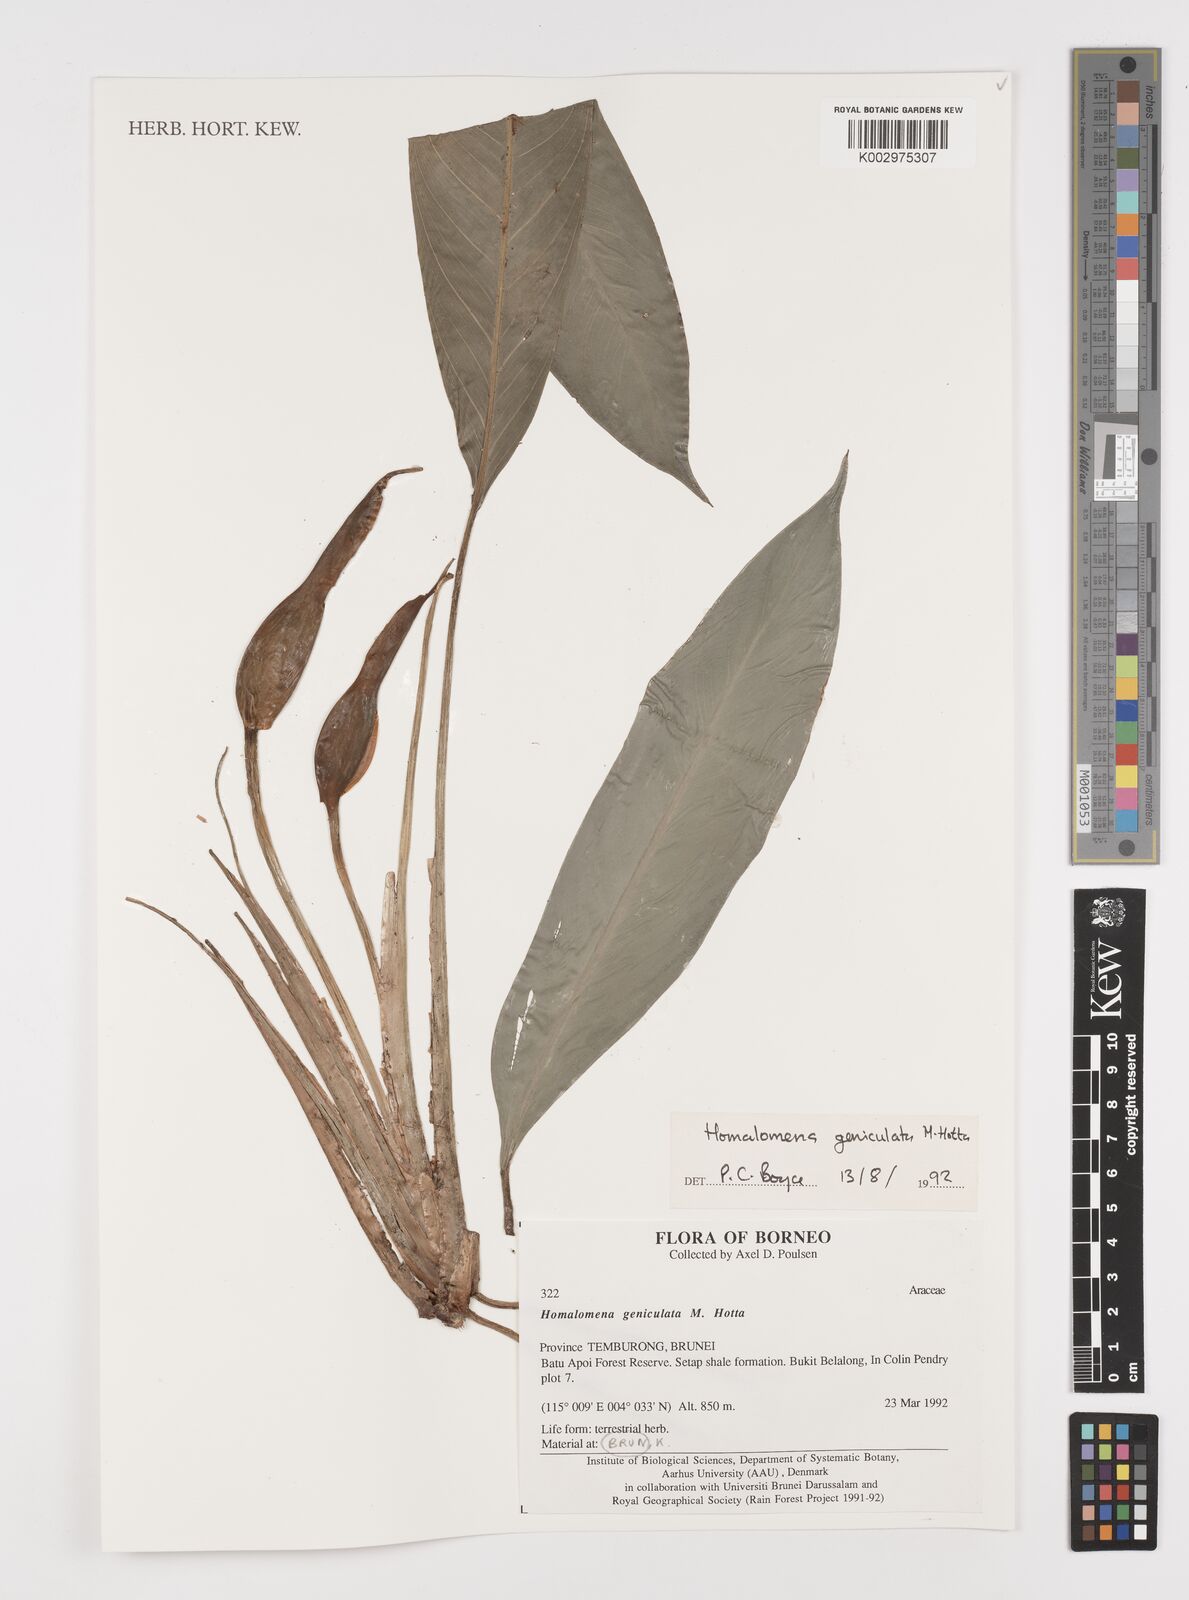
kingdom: Plantae
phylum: Tracheophyta
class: Liliopsida
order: Alismatales
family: Araceae
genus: Homalomena
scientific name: Homalomena punctulata
